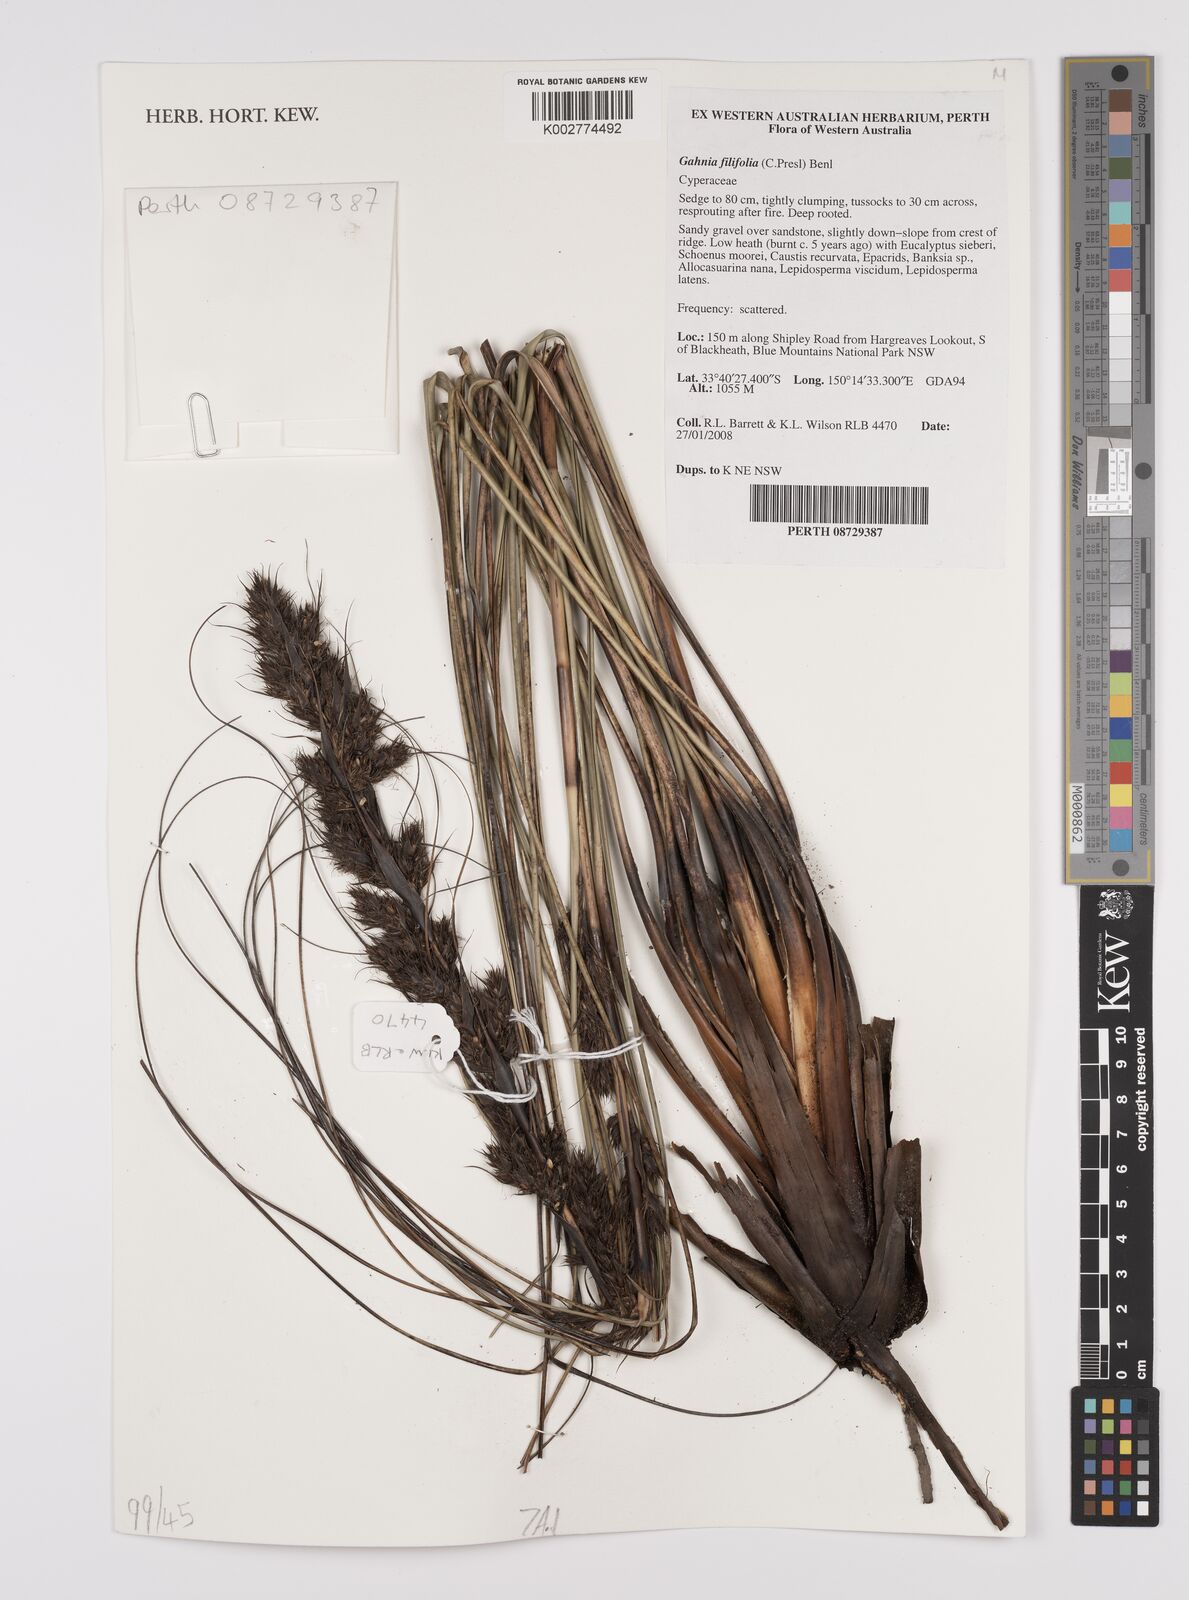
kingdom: Plantae
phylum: Tracheophyta
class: Liliopsida
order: Poales
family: Cyperaceae
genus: Gahnia
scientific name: Gahnia filifolia
